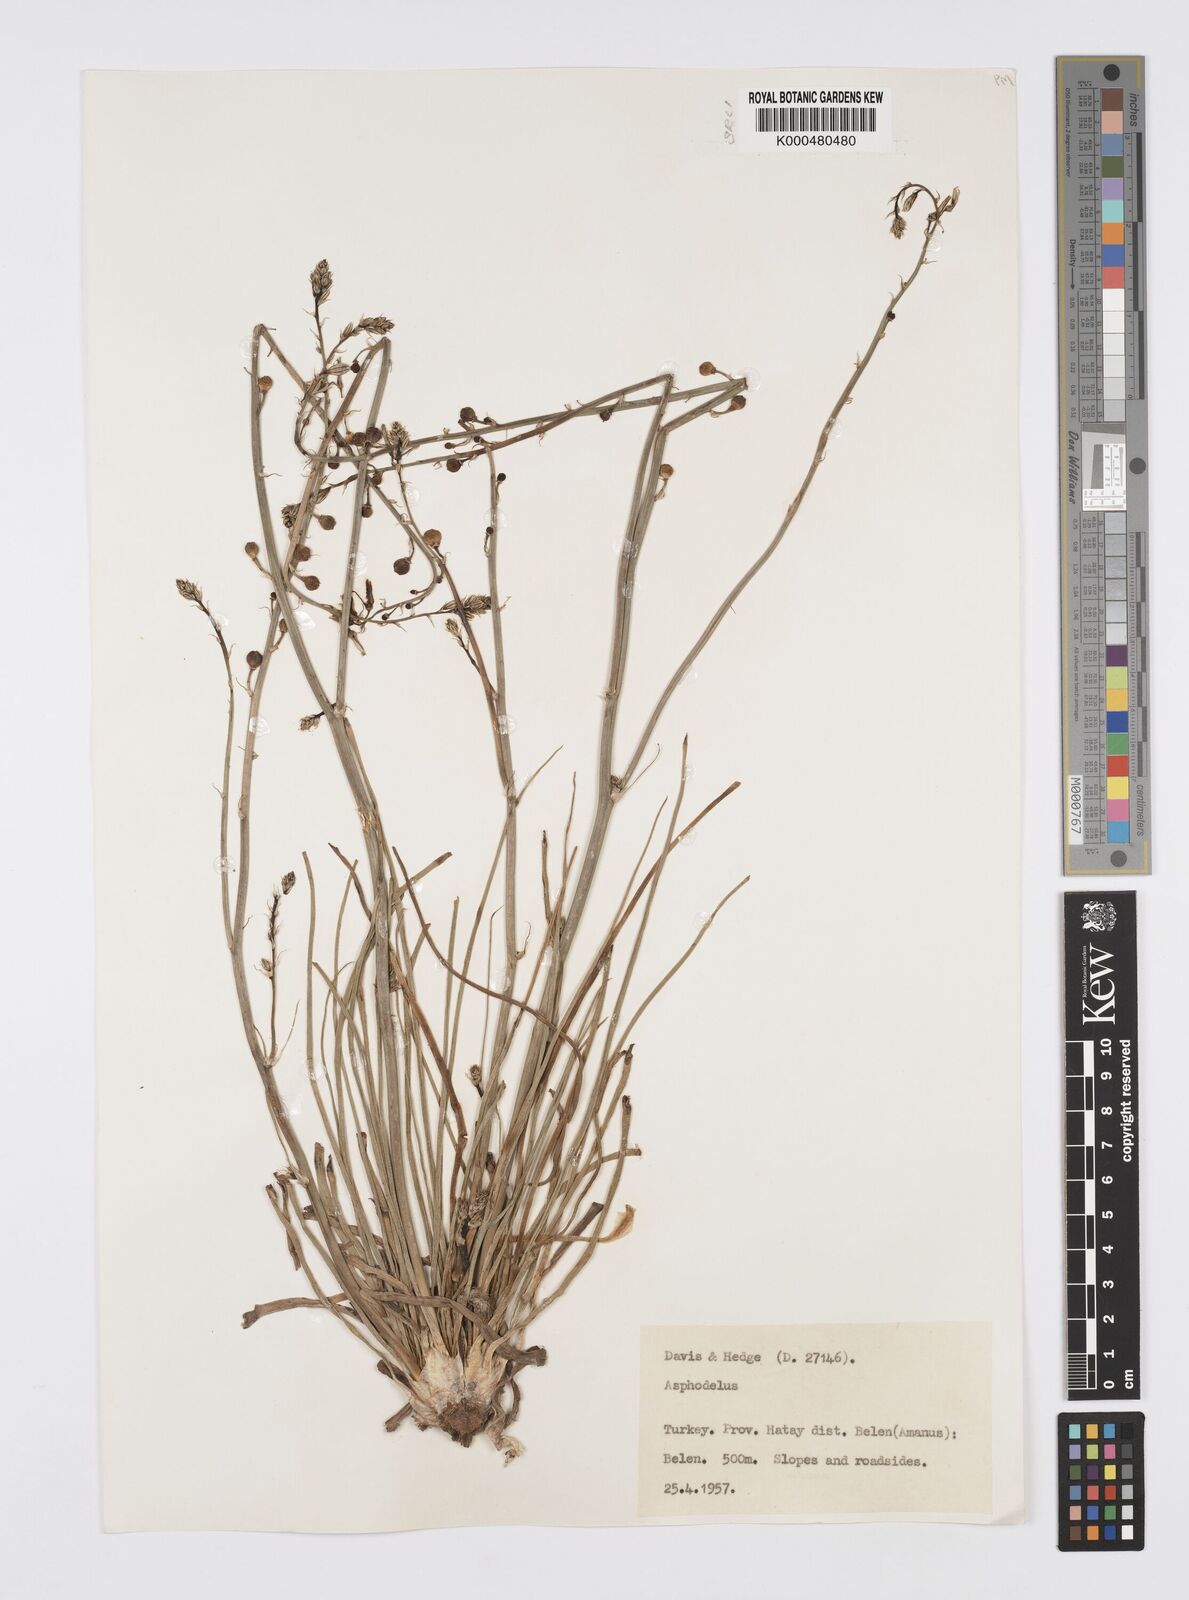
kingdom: Plantae
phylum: Tracheophyta
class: Liliopsida
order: Asparagales
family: Asphodelaceae
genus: Asphodelus
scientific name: Asphodelus fistulosus
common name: Onionweed
